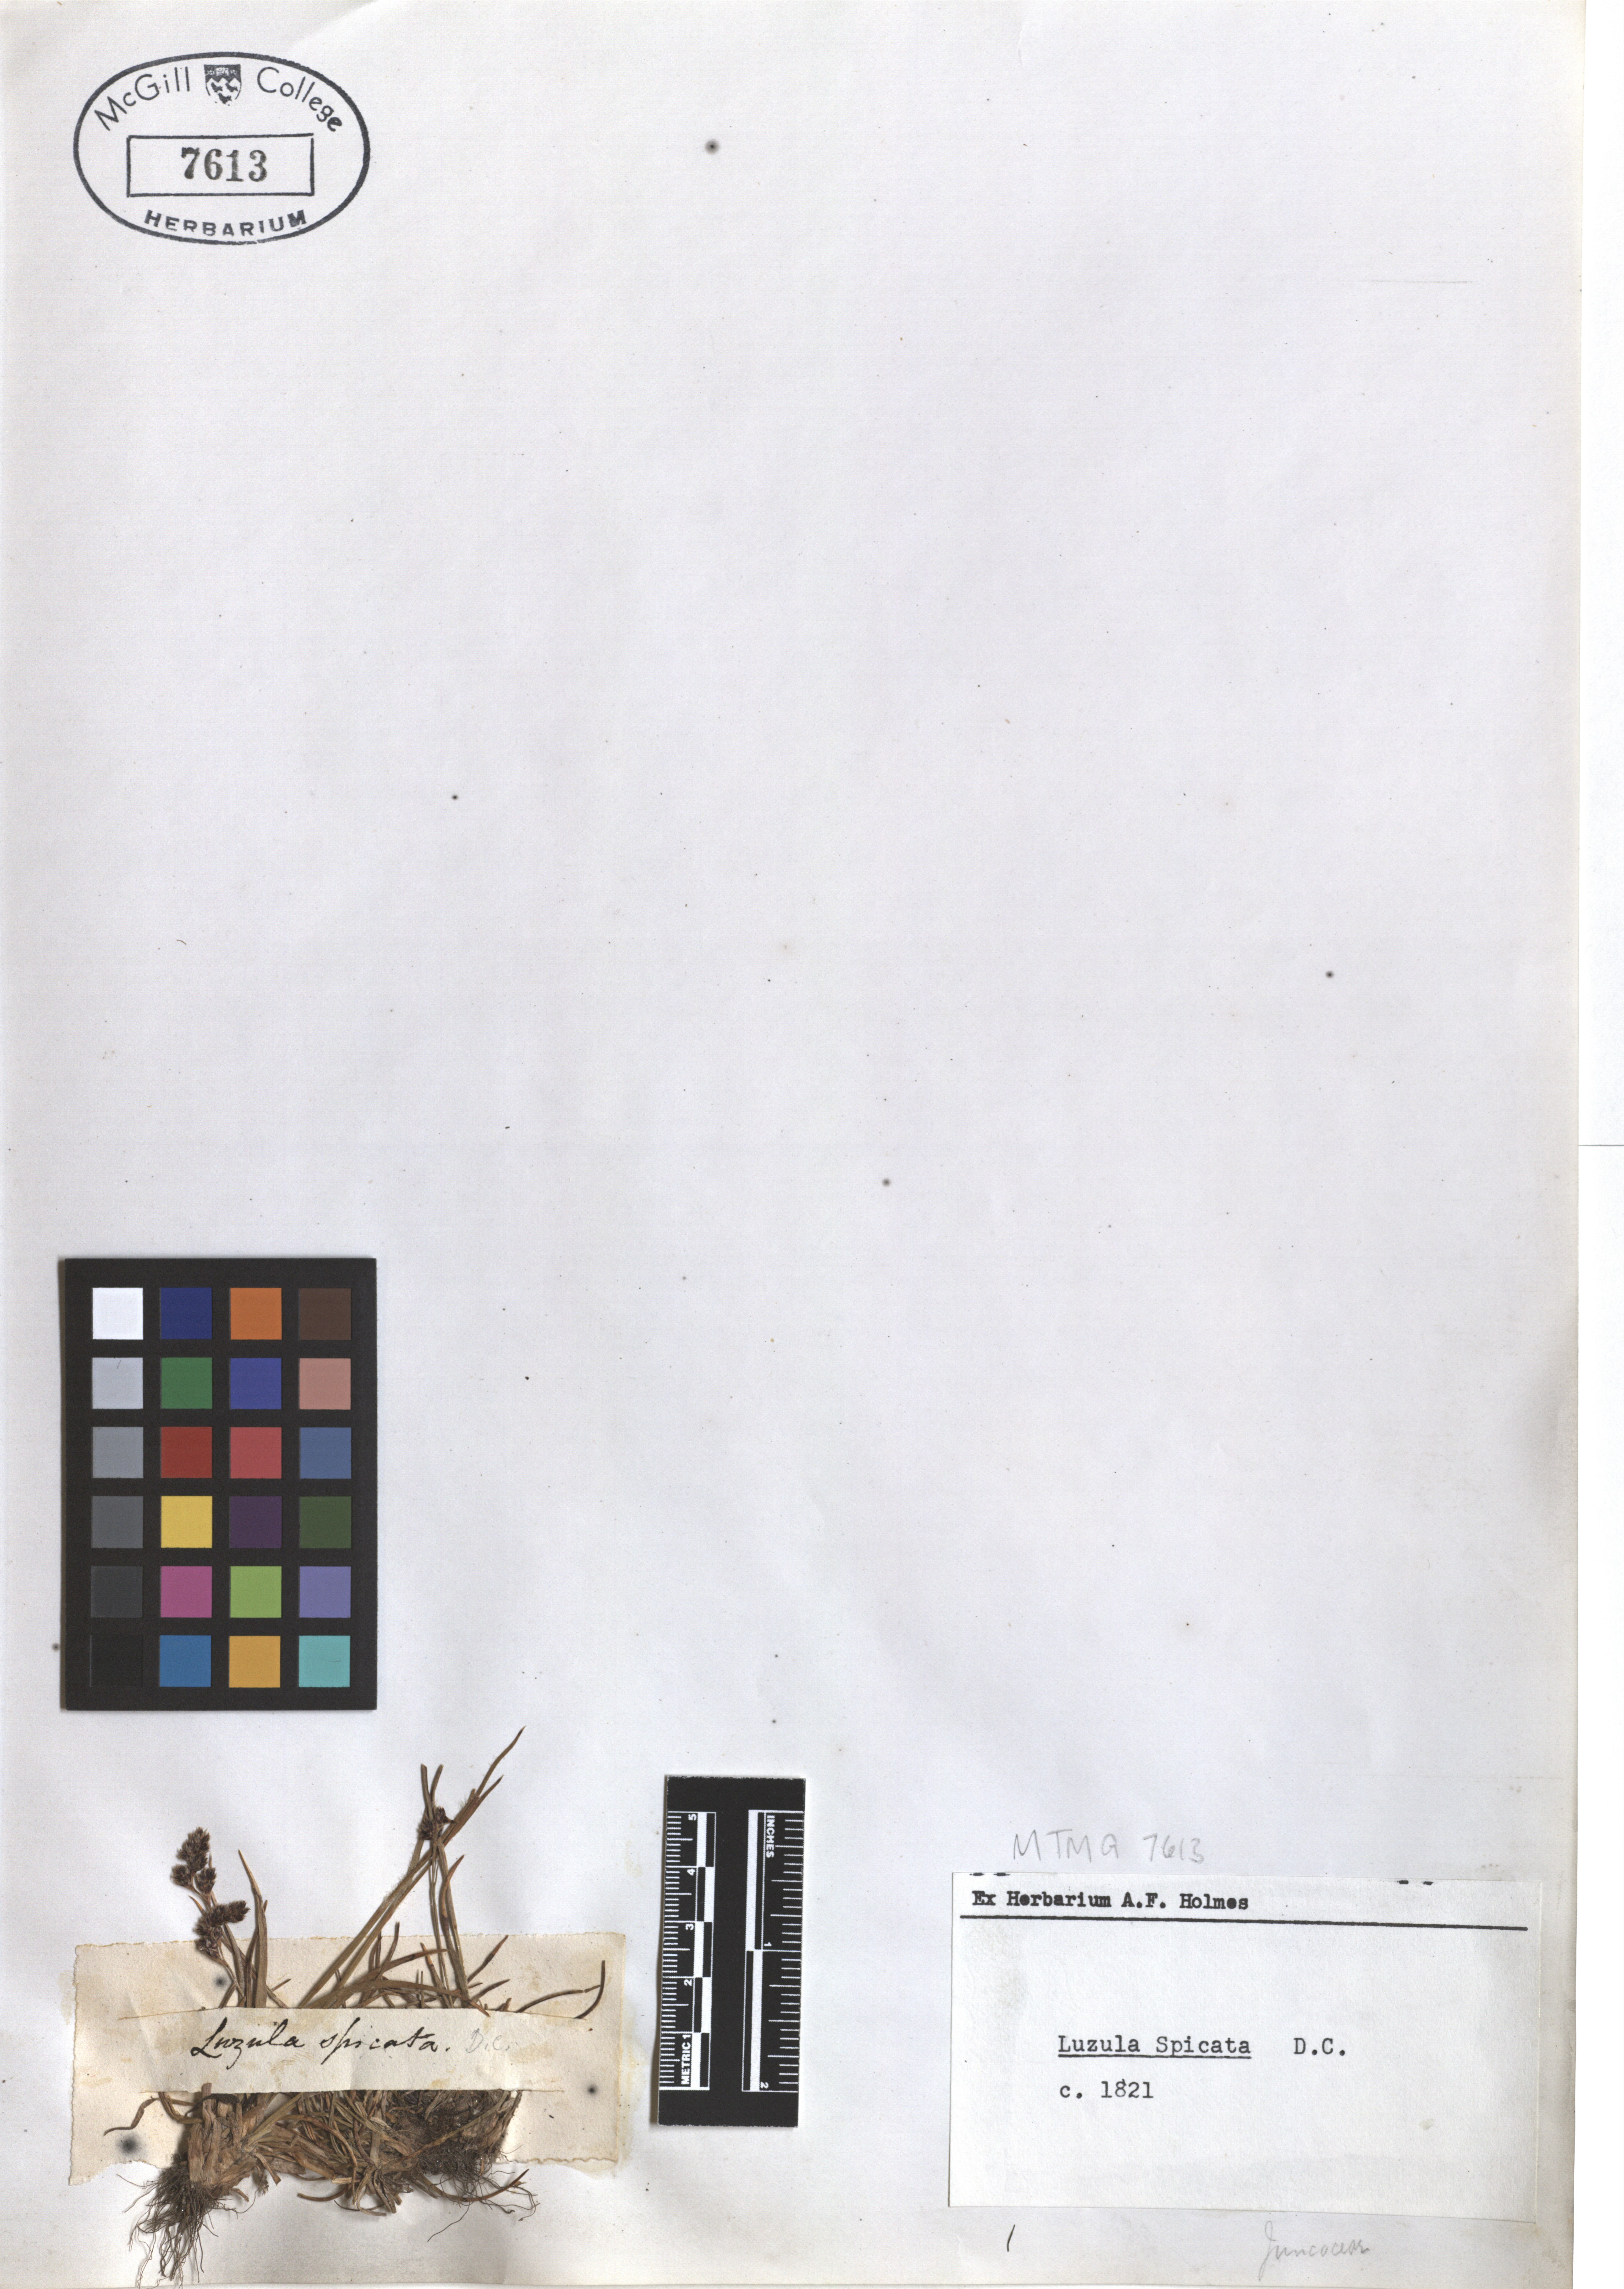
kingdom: Plantae
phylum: Tracheophyta
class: Liliopsida
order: Poales
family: Juncaceae
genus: Luzula
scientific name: Luzula spicata
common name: Spiked wood-rush
